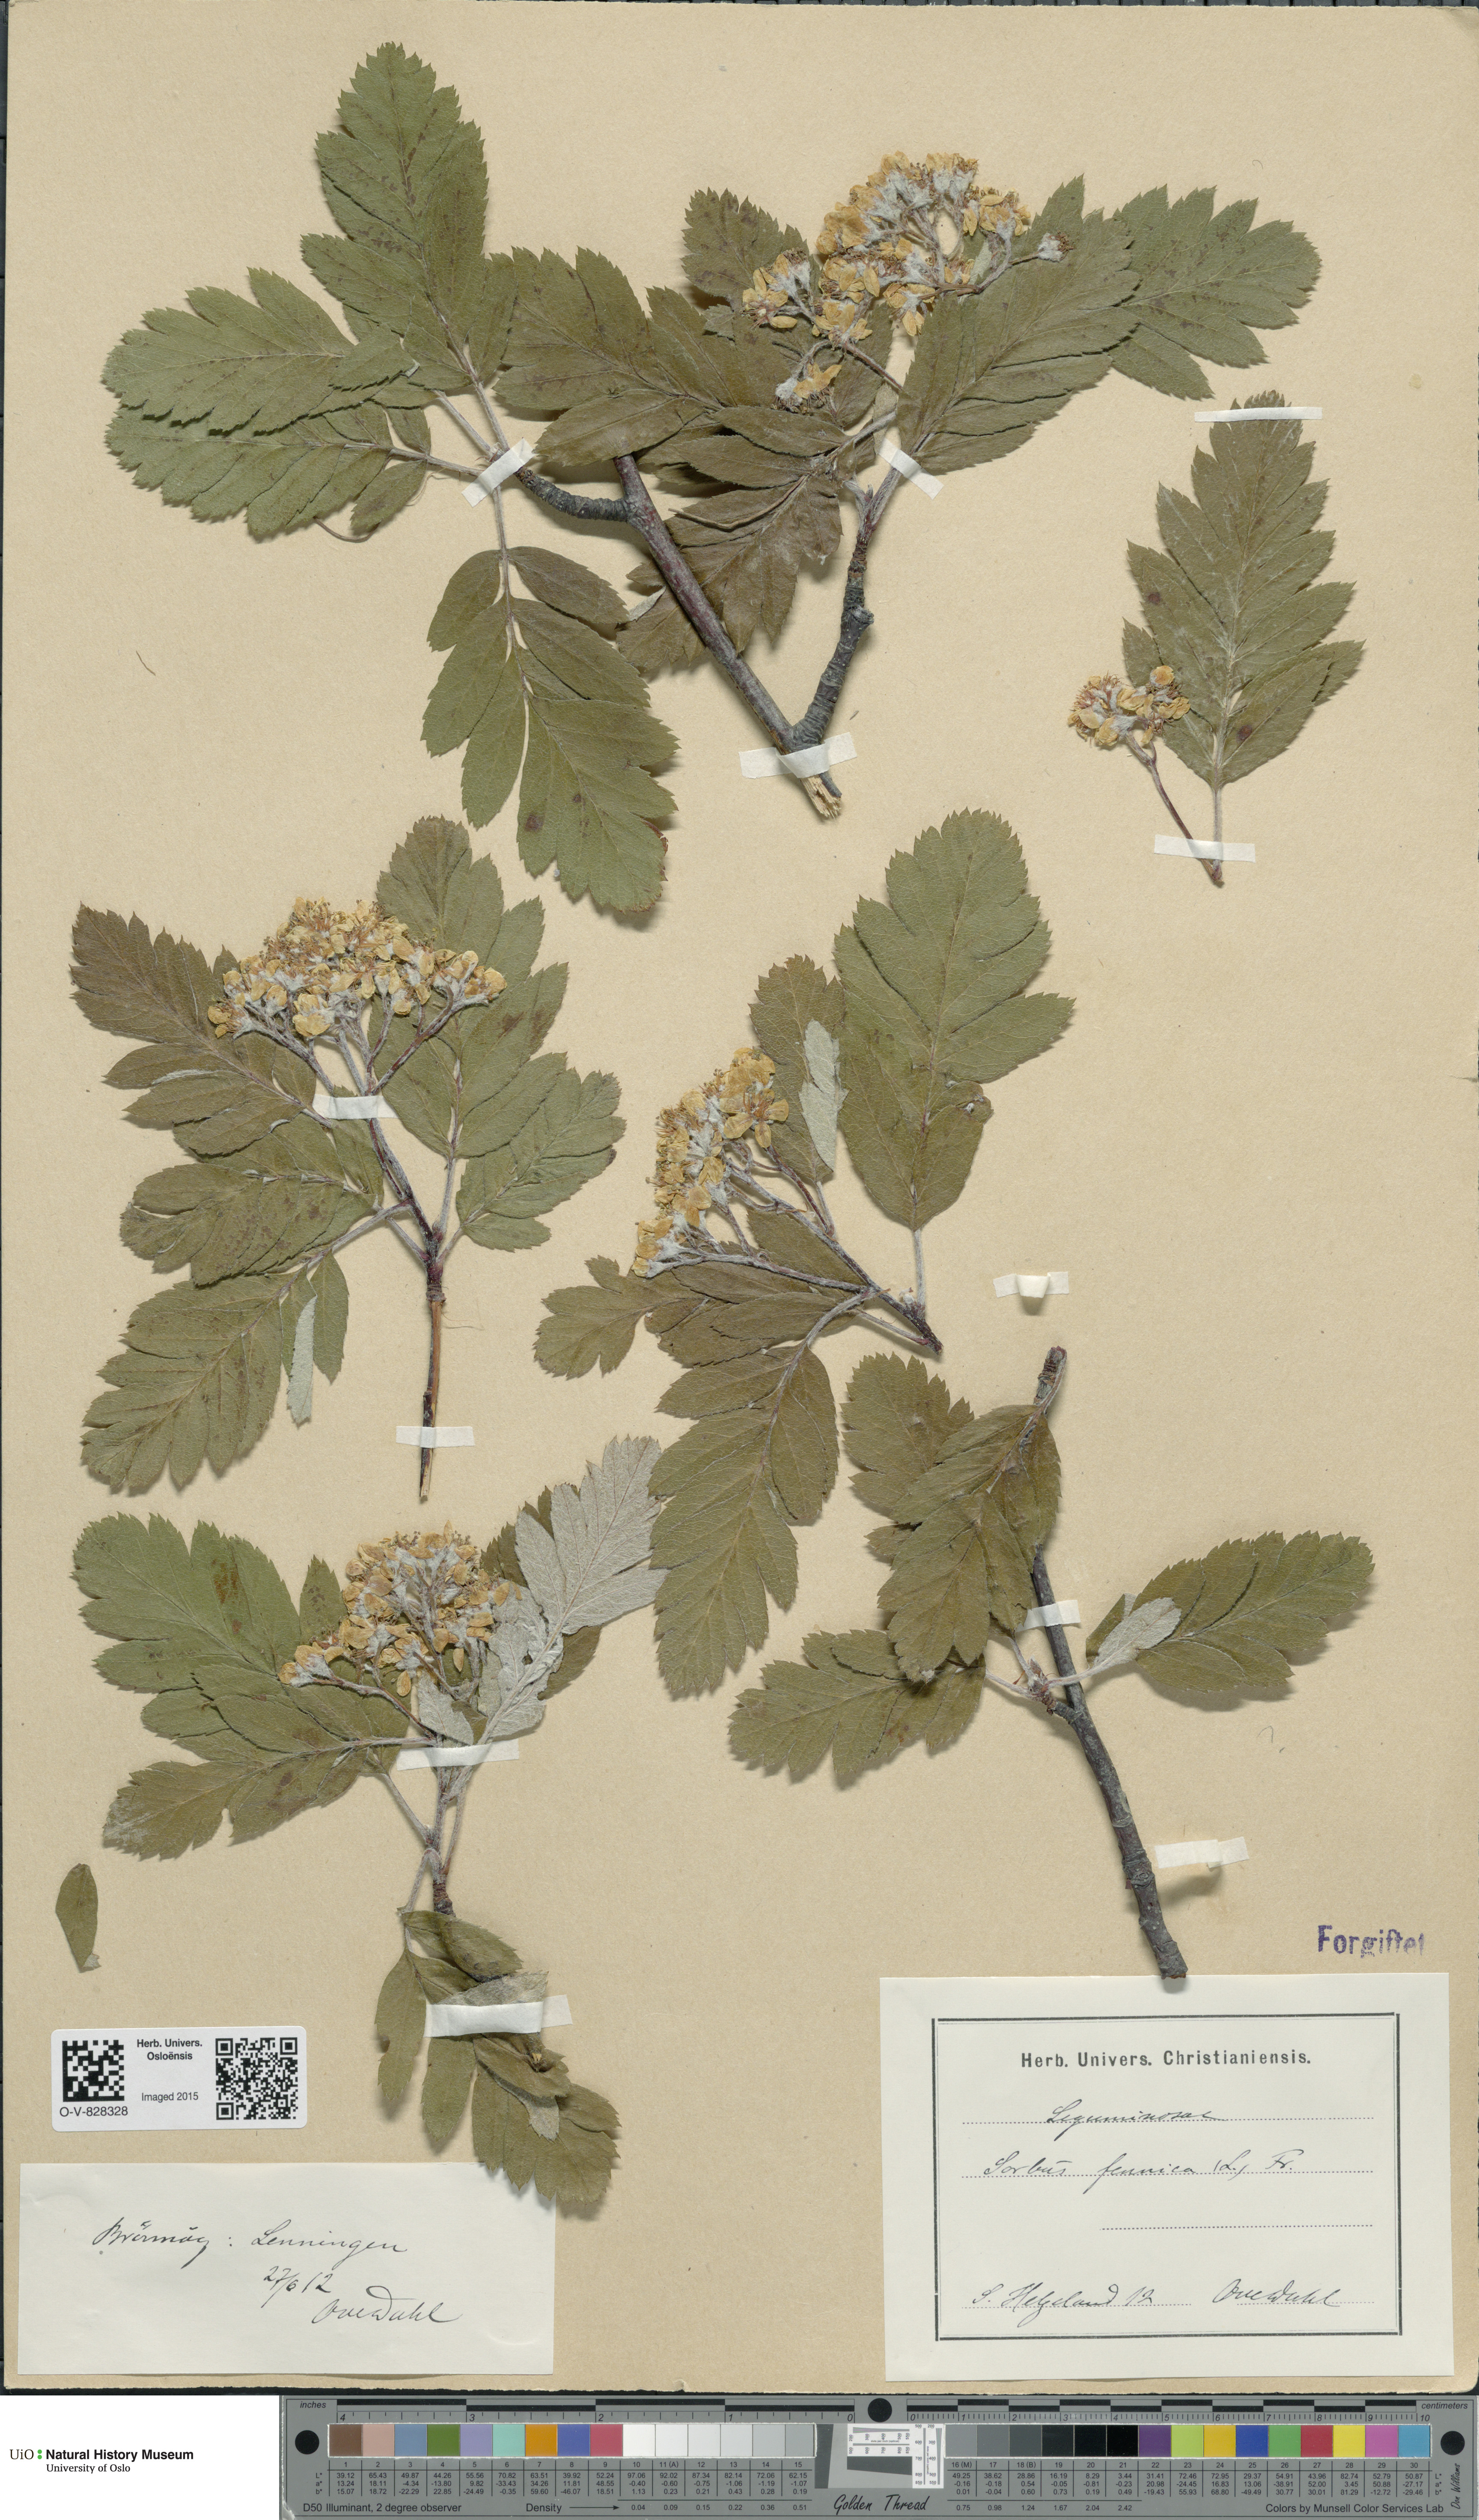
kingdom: Plantae
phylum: Tracheophyta
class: Magnoliopsida
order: Rosales
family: Rosaceae
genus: Hedlundia
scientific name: Hedlundia hybrida
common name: Swedish service-tree
